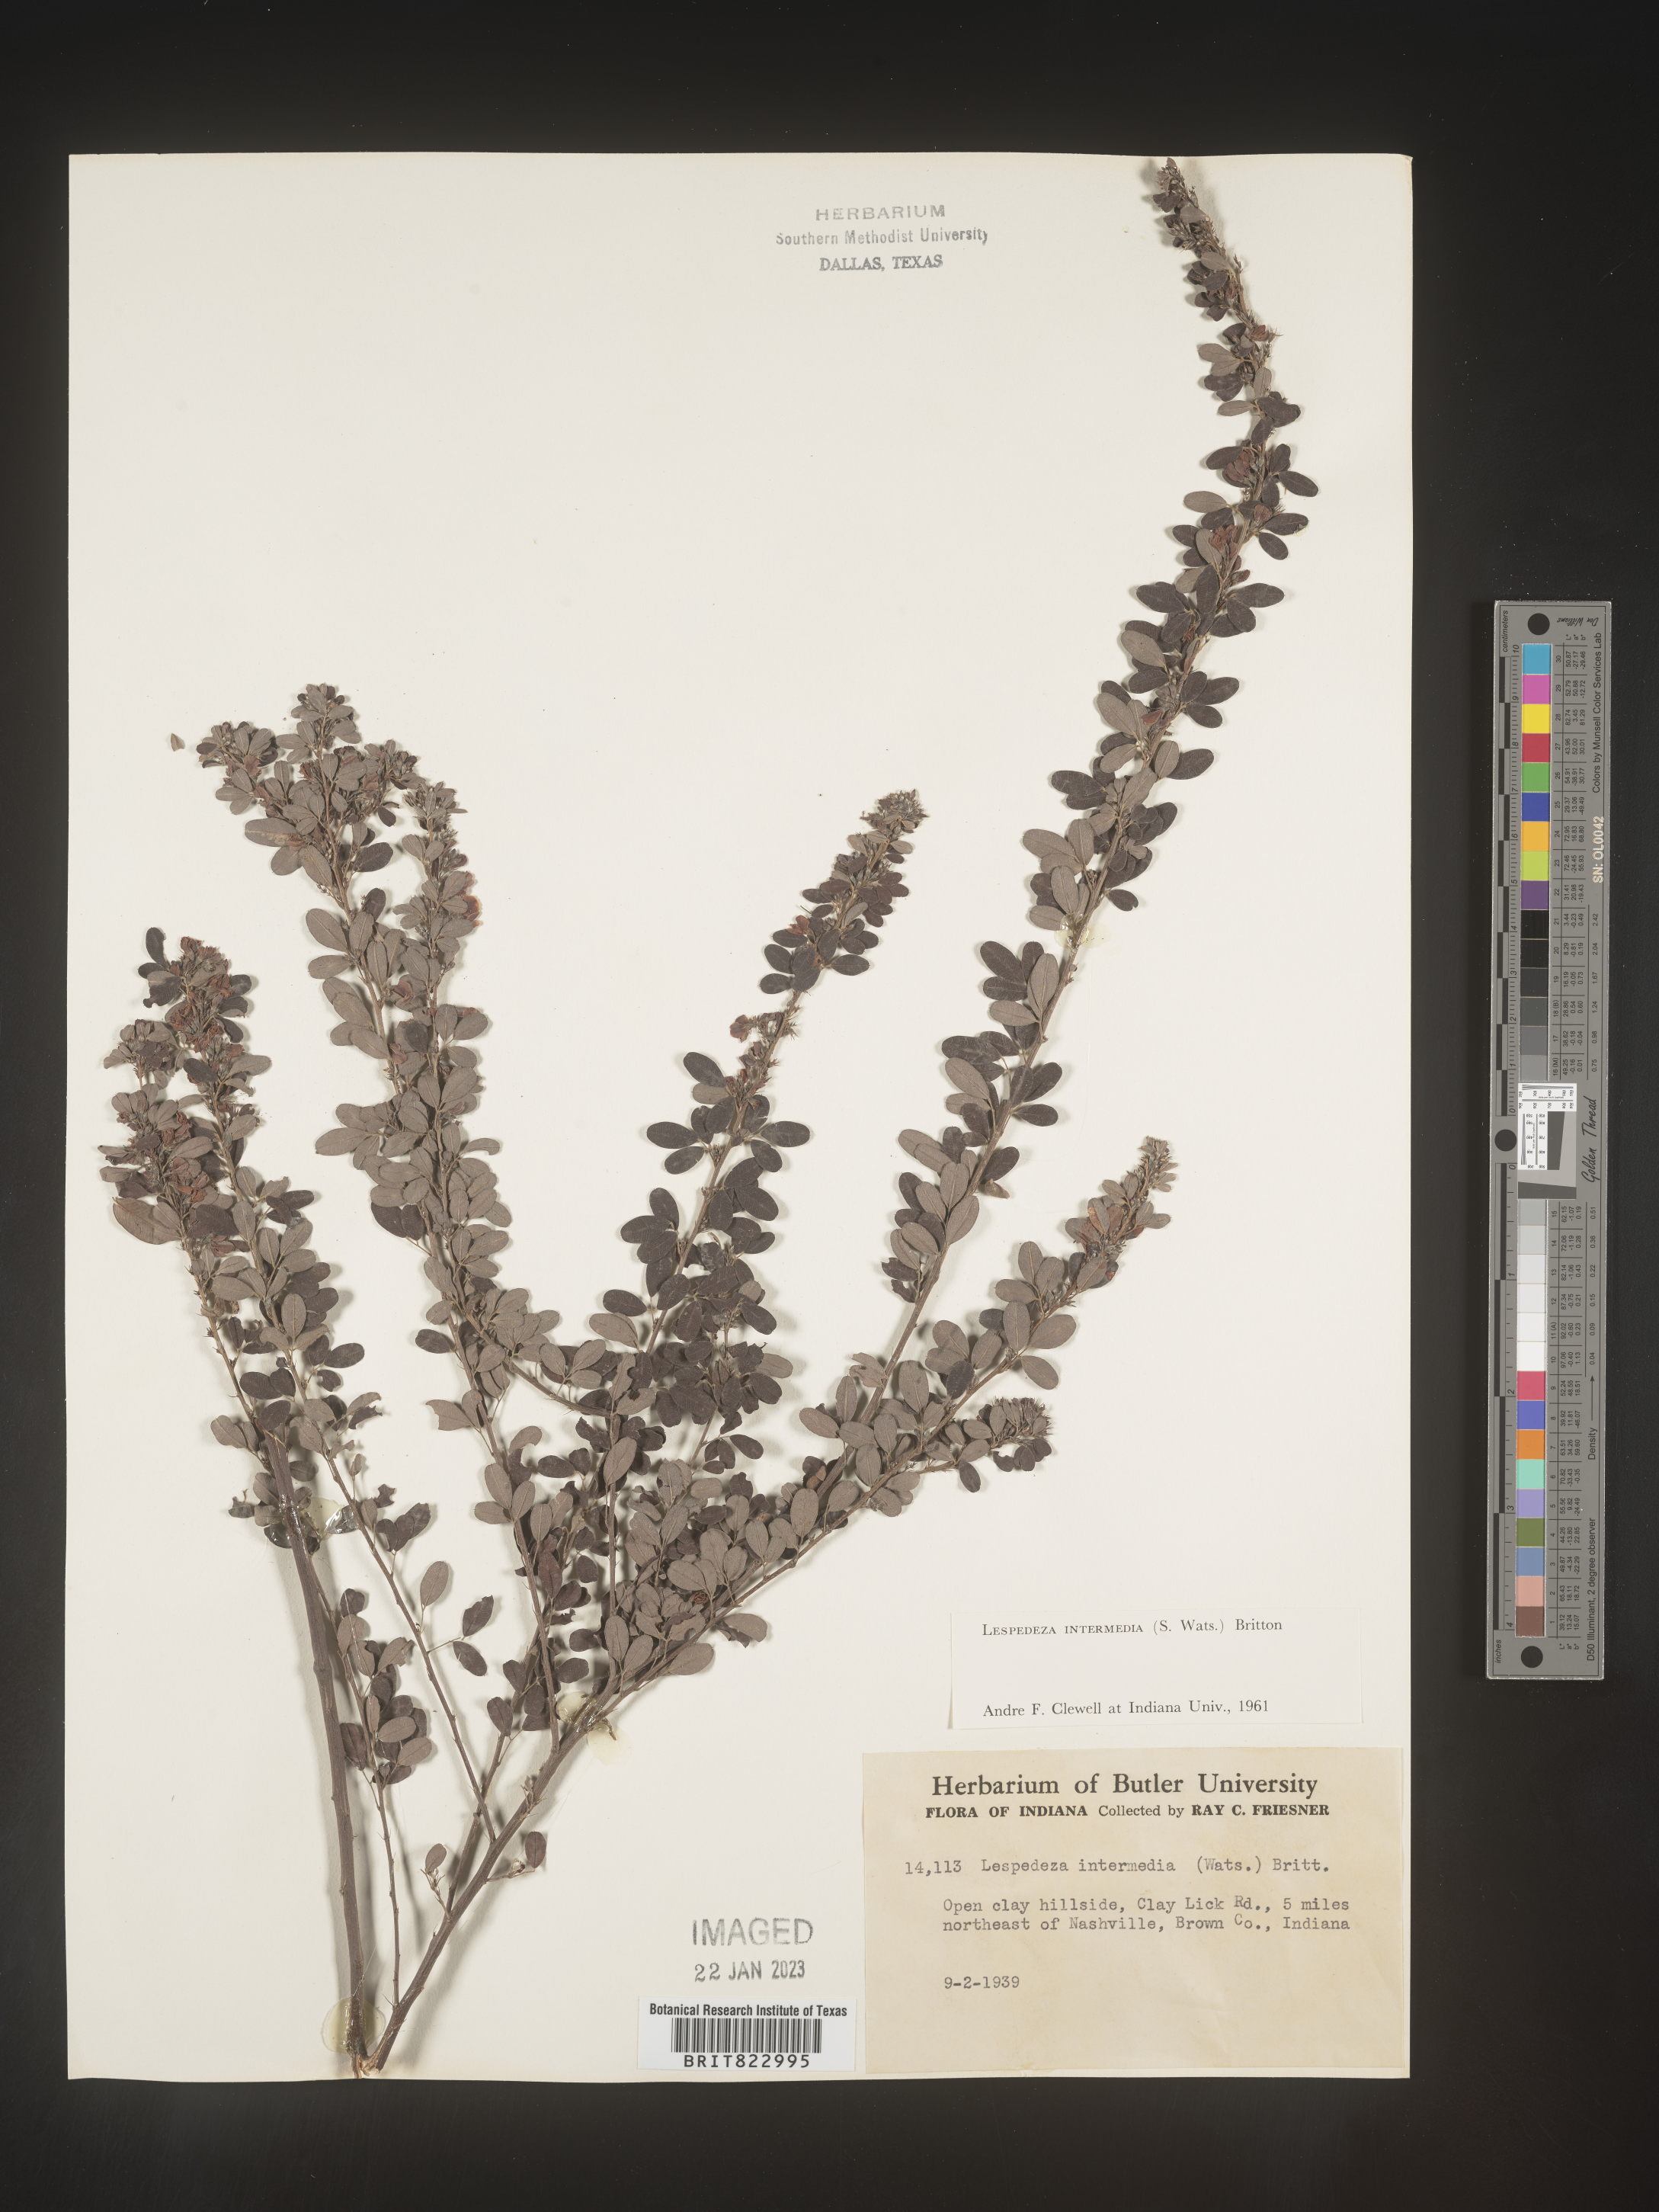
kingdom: Plantae
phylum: Tracheophyta
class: Magnoliopsida
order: Fabales
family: Fabaceae
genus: Lespedeza
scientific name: Lespedeza
